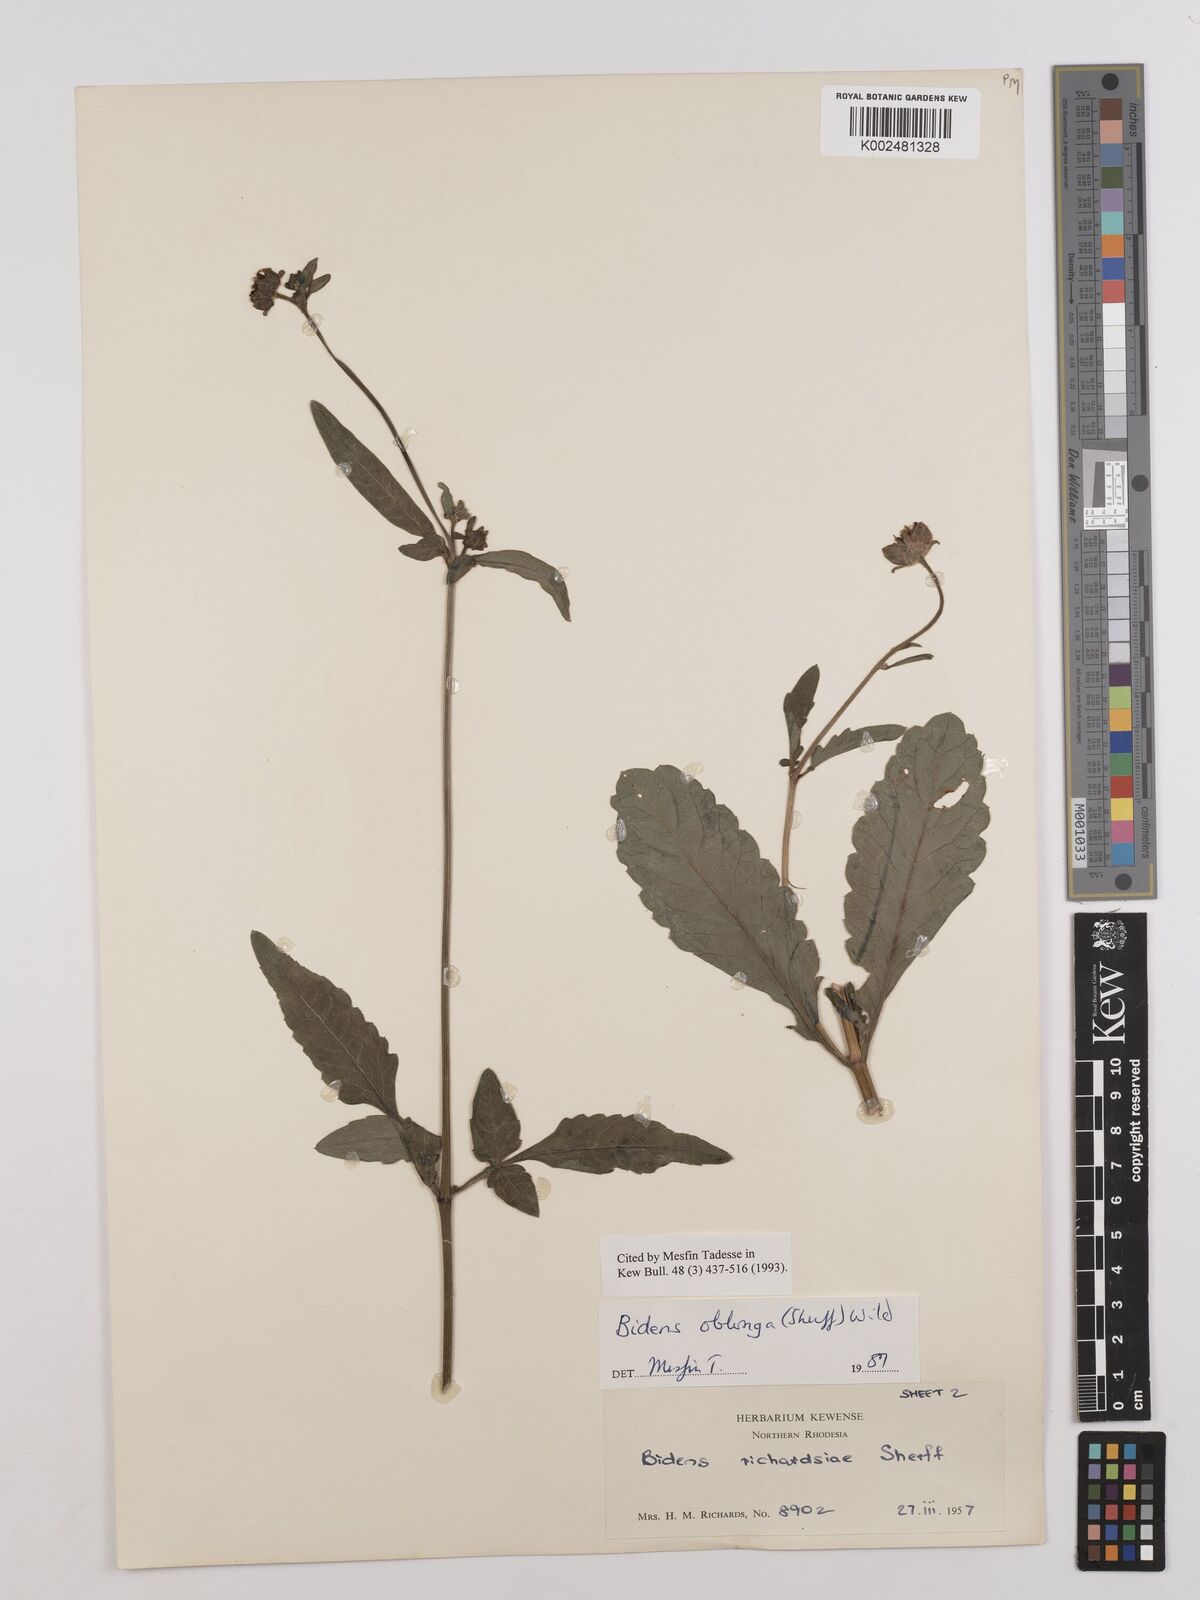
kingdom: Plantae
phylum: Tracheophyta
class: Magnoliopsida
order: Asterales
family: Asteraceae
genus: Bidens
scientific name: Bidens oblonga
